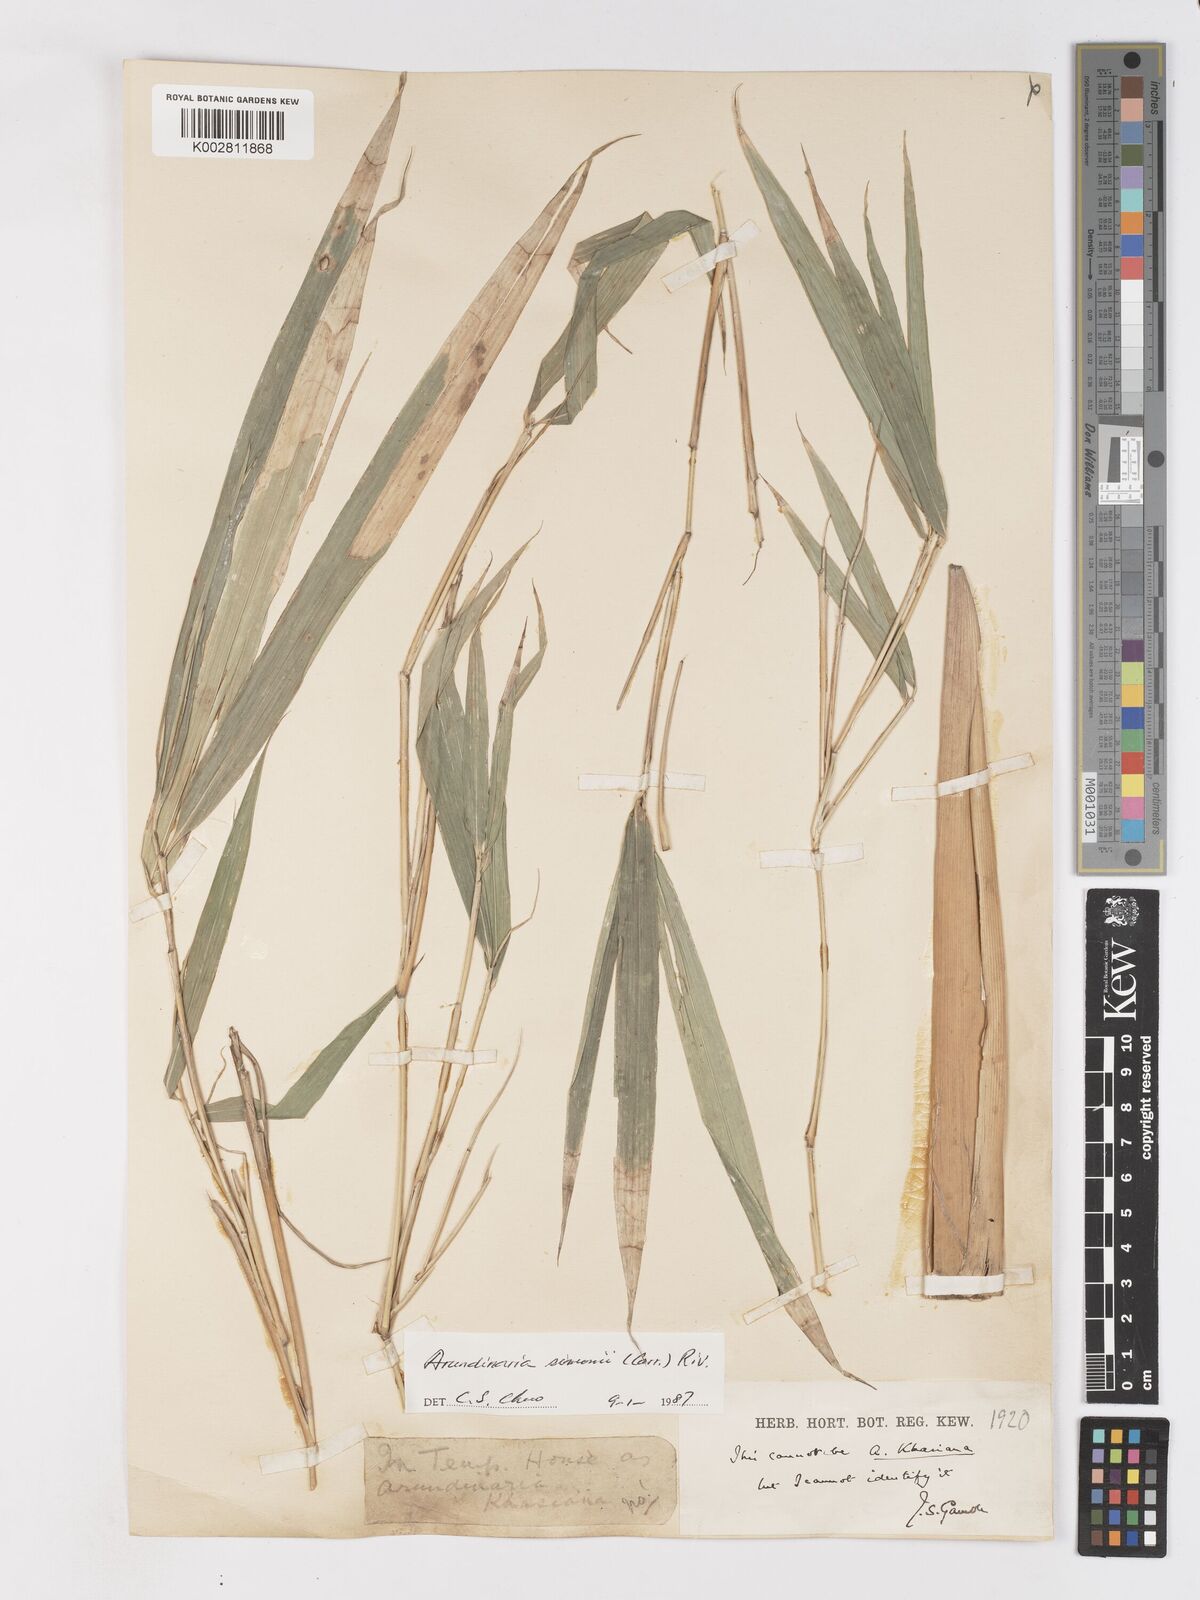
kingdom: Plantae
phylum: Tracheophyta
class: Liliopsida
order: Poales
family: Poaceae
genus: Pleioblastus
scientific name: Pleioblastus simonii
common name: Simon bamboo
